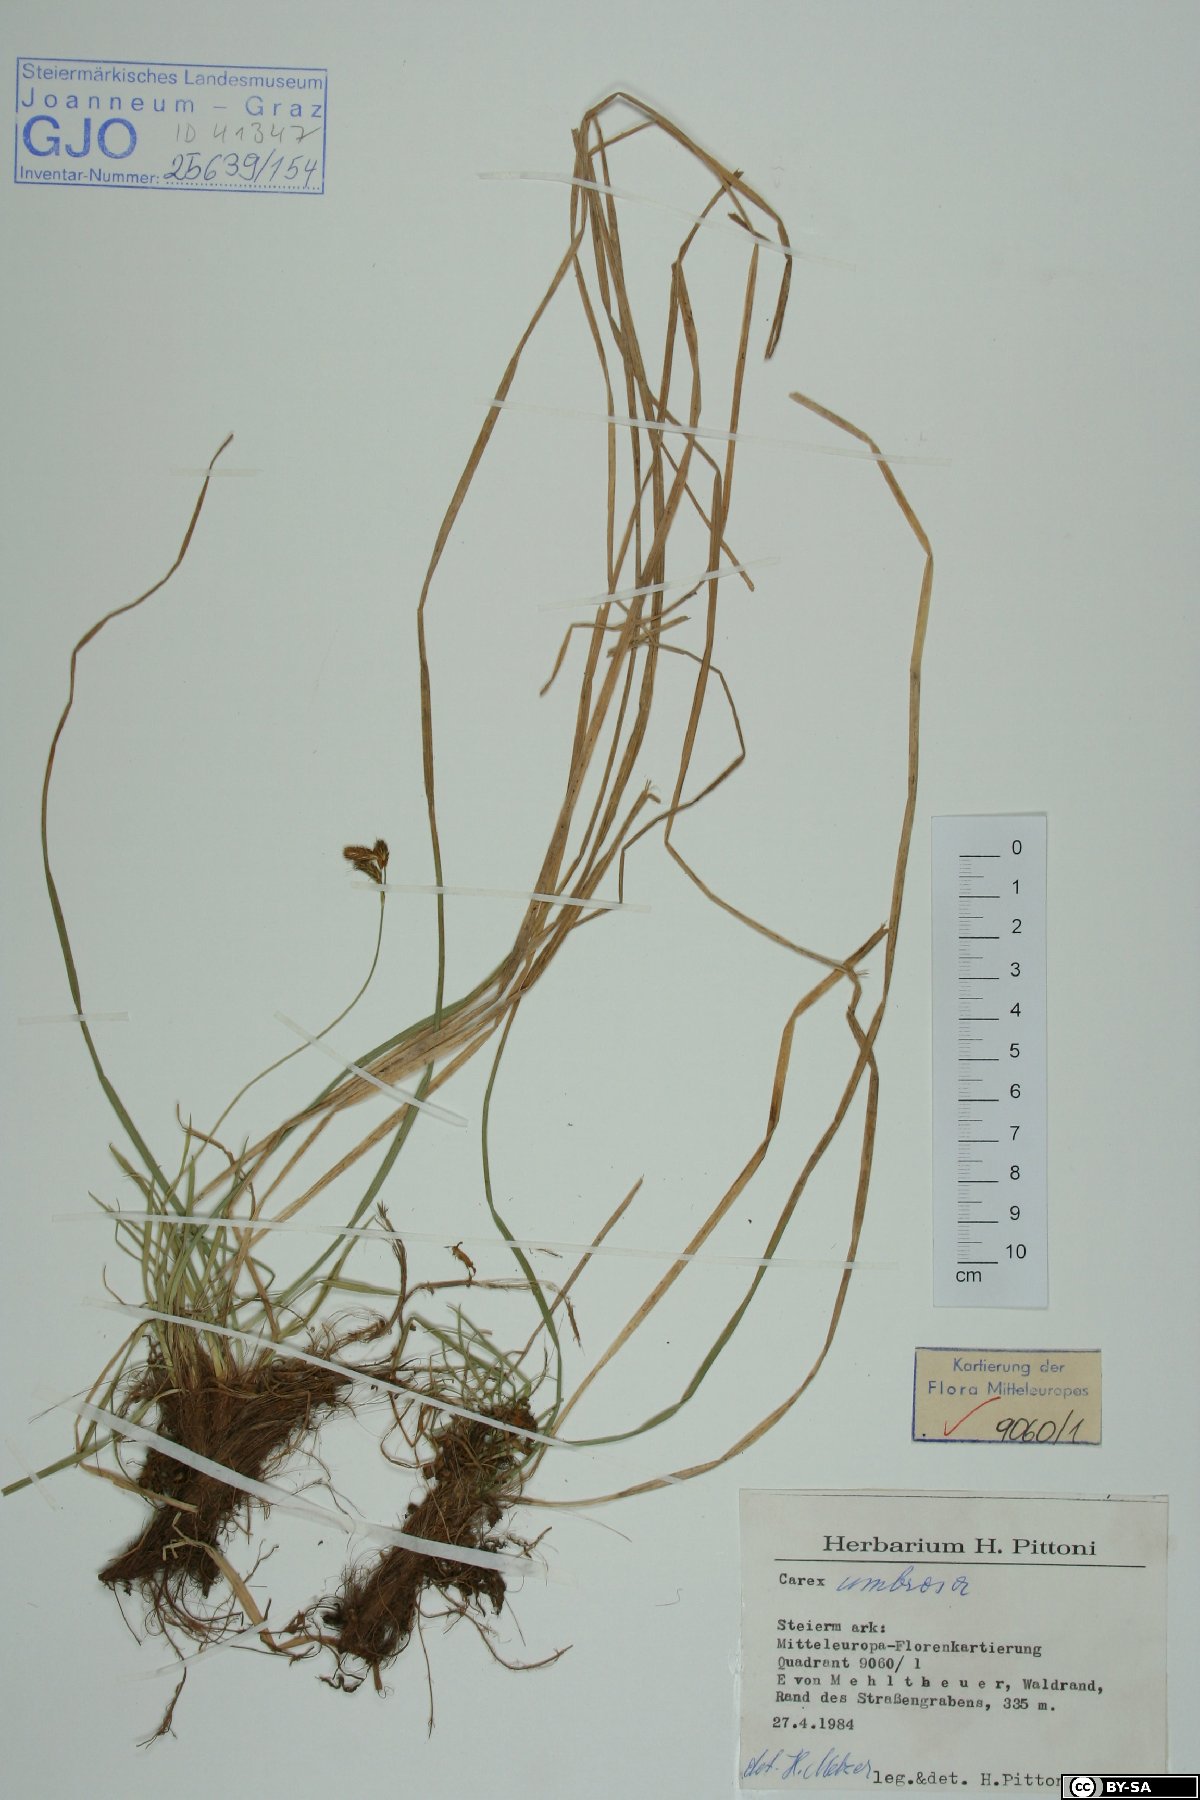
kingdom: Plantae
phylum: Tracheophyta
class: Liliopsida
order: Poales
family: Cyperaceae
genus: Carex
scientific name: Carex umbrosa
